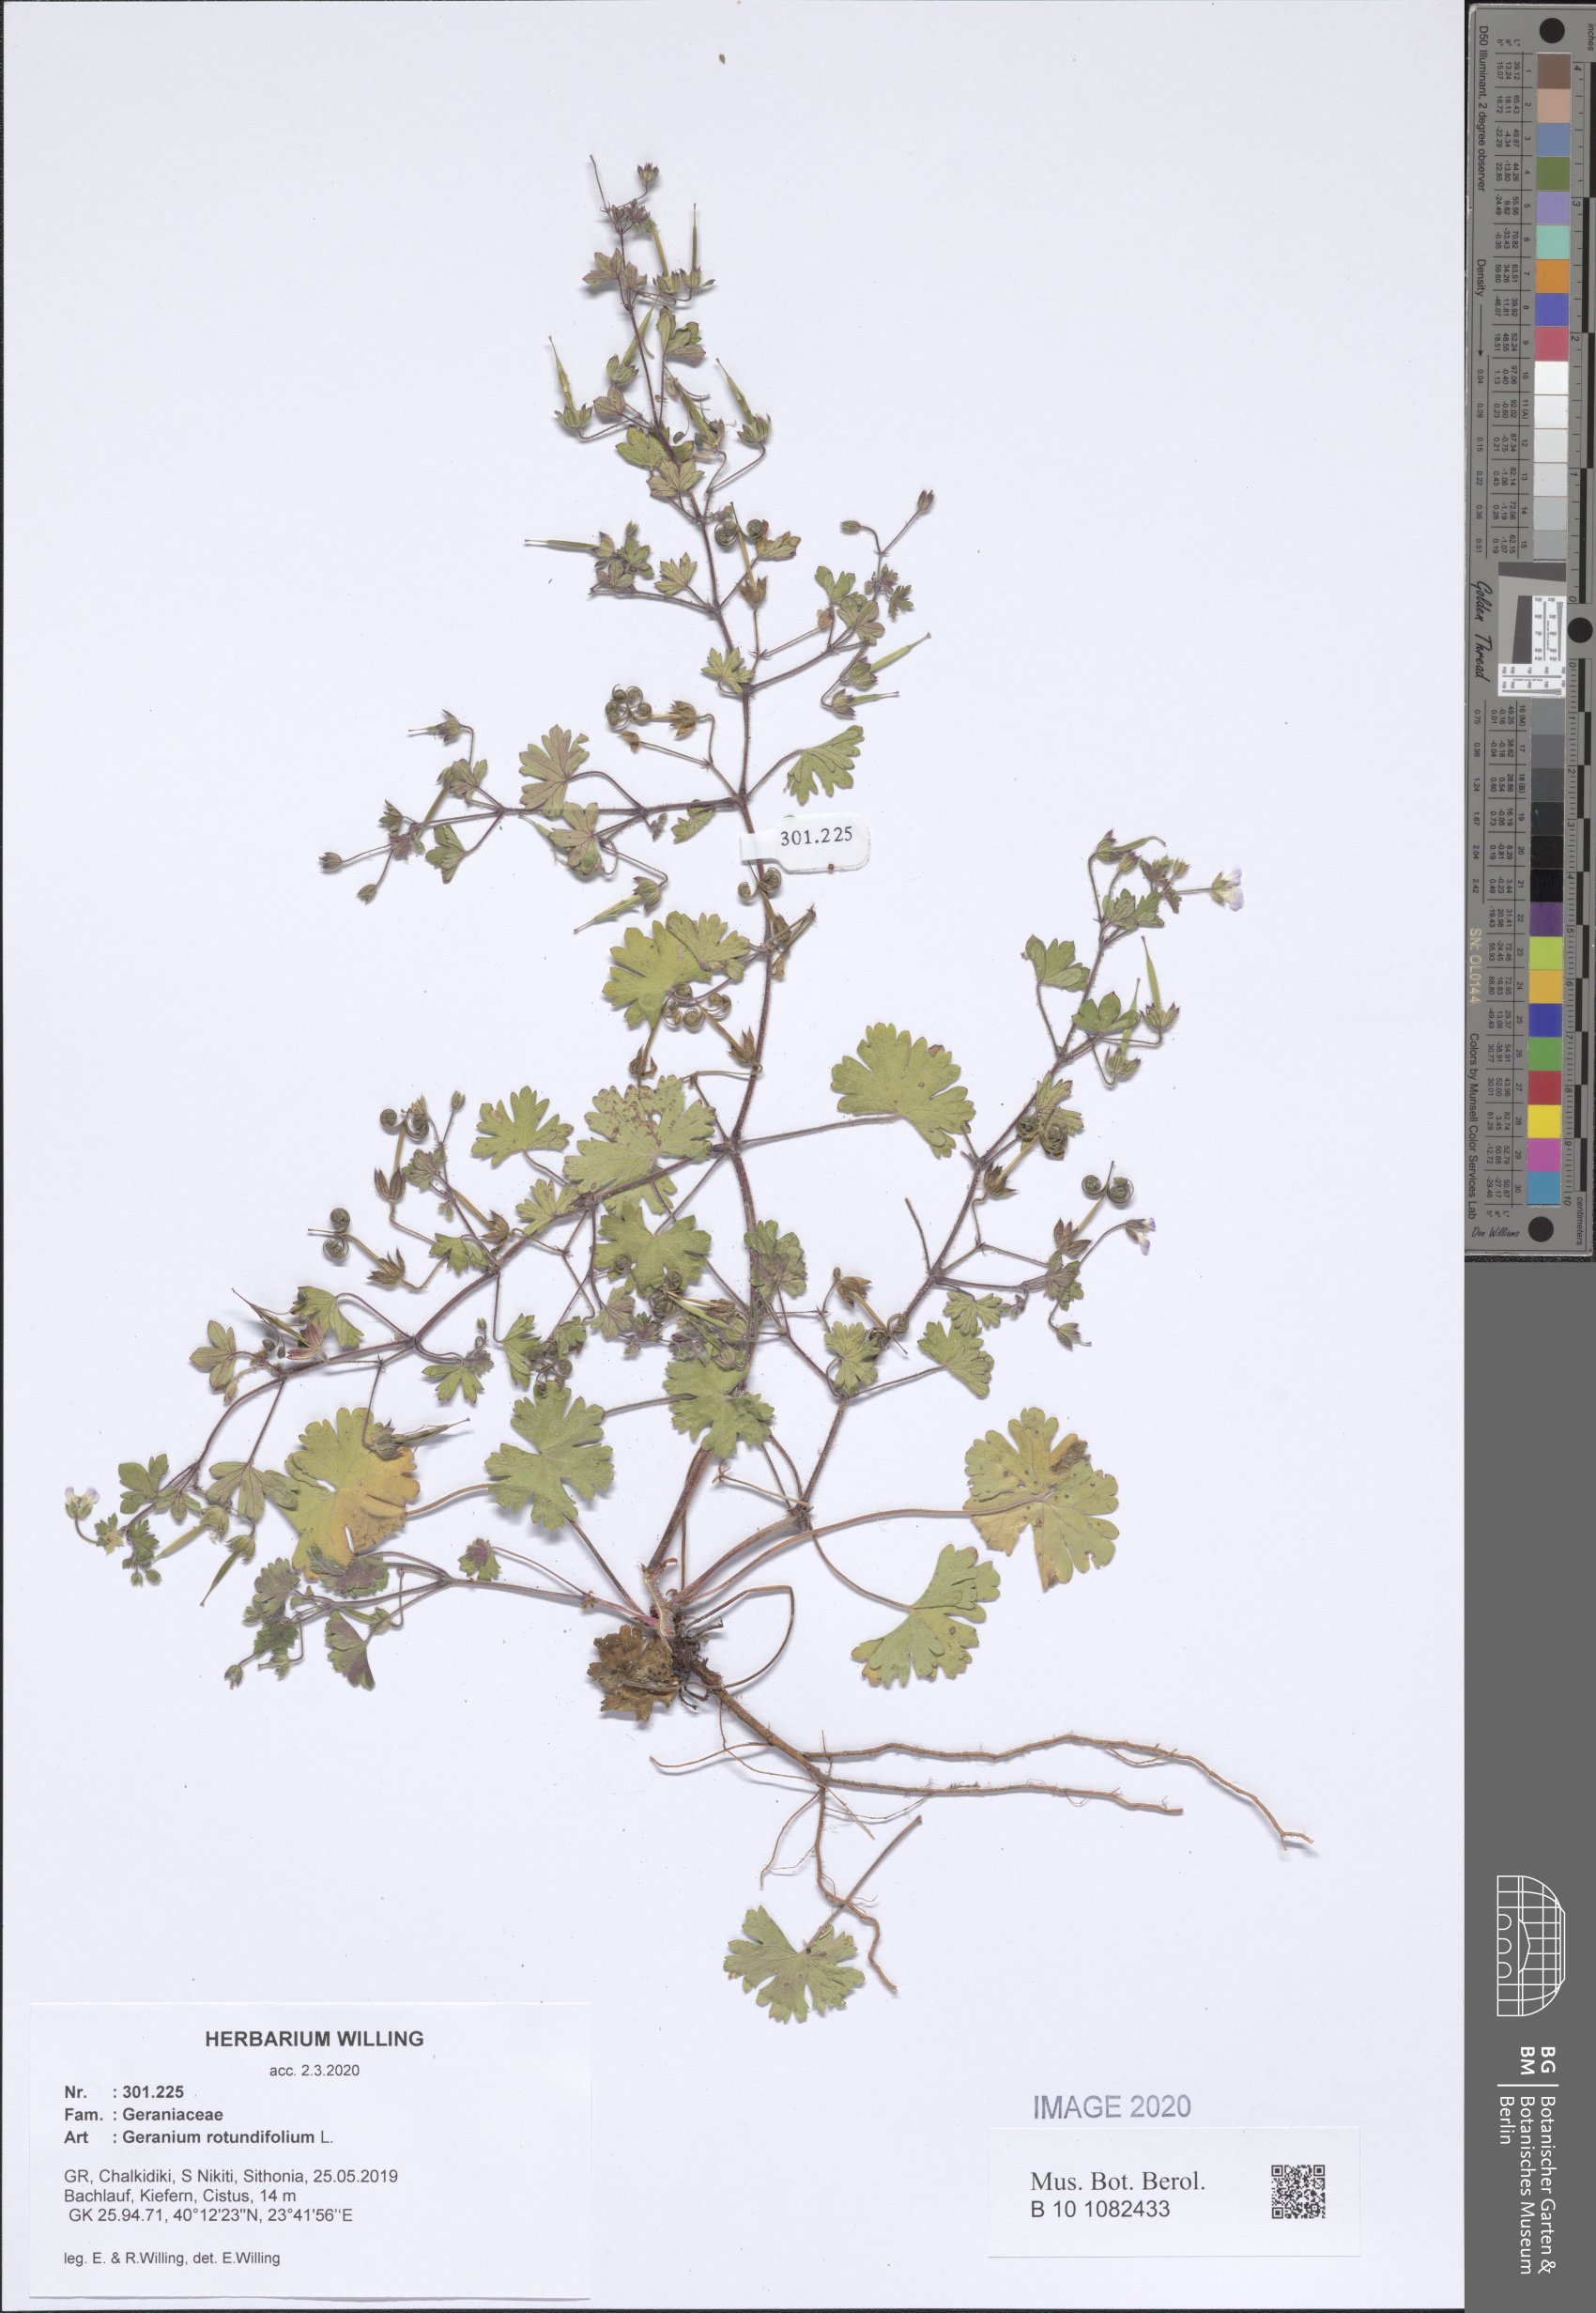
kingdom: Plantae
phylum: Tracheophyta
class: Magnoliopsida
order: Geraniales
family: Geraniaceae
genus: Geranium
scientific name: Geranium rotundifolium
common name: Round-leaved crane's-bill
